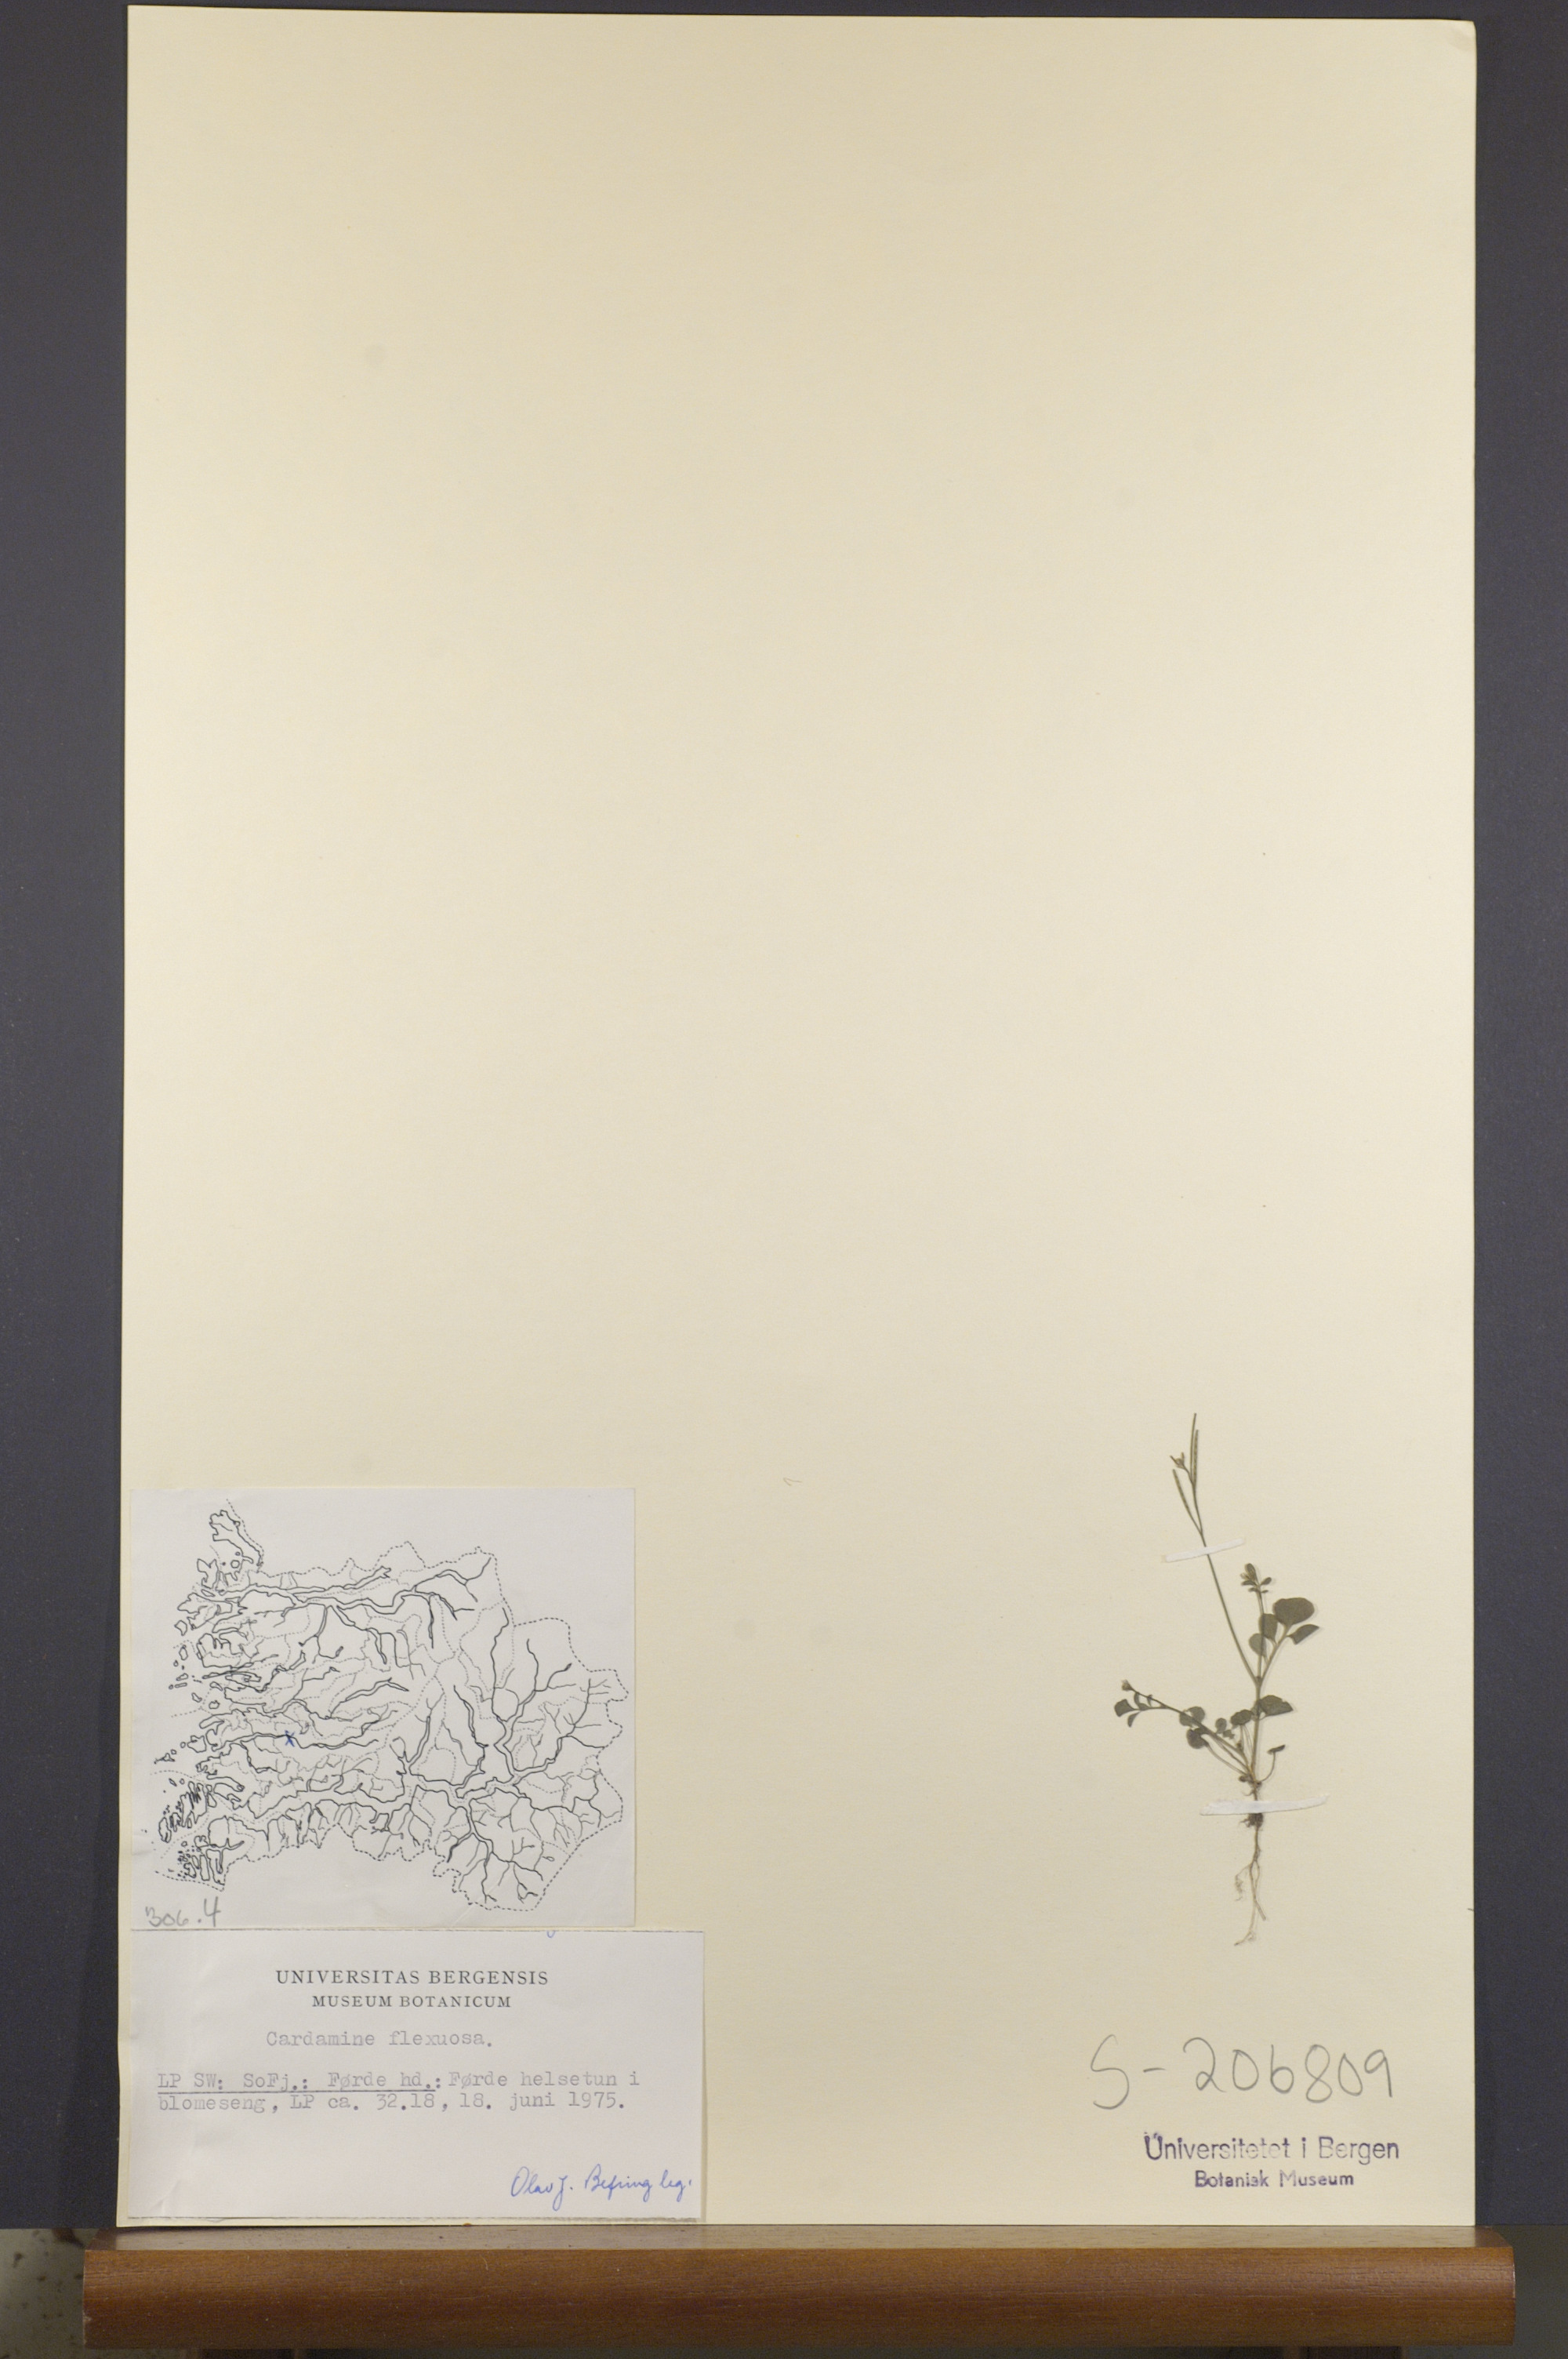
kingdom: Plantae
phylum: Tracheophyta
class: Magnoliopsida
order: Brassicales
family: Brassicaceae
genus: Cardamine
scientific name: Cardamine flexuosa
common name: Woodland bittercress
